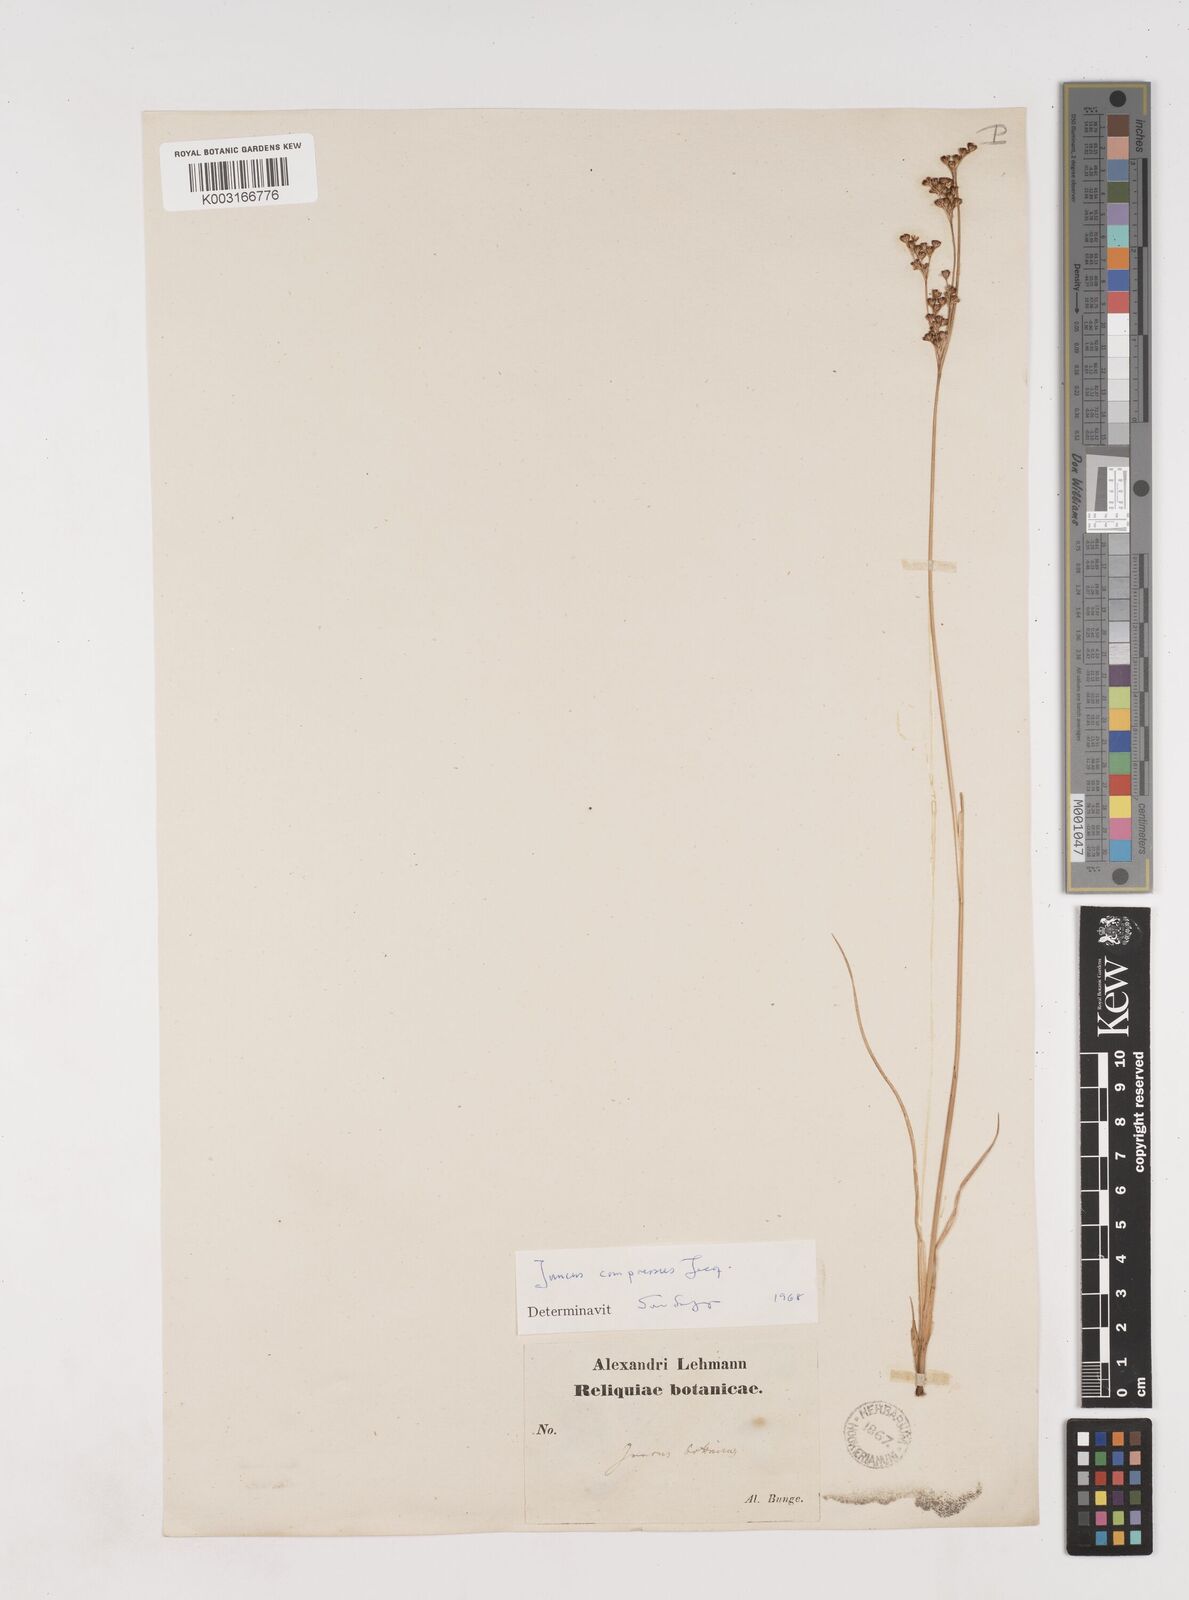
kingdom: Plantae
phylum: Tracheophyta
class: Liliopsida
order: Poales
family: Juncaceae
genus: Juncus
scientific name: Juncus compressus
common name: Round-fruited rush
